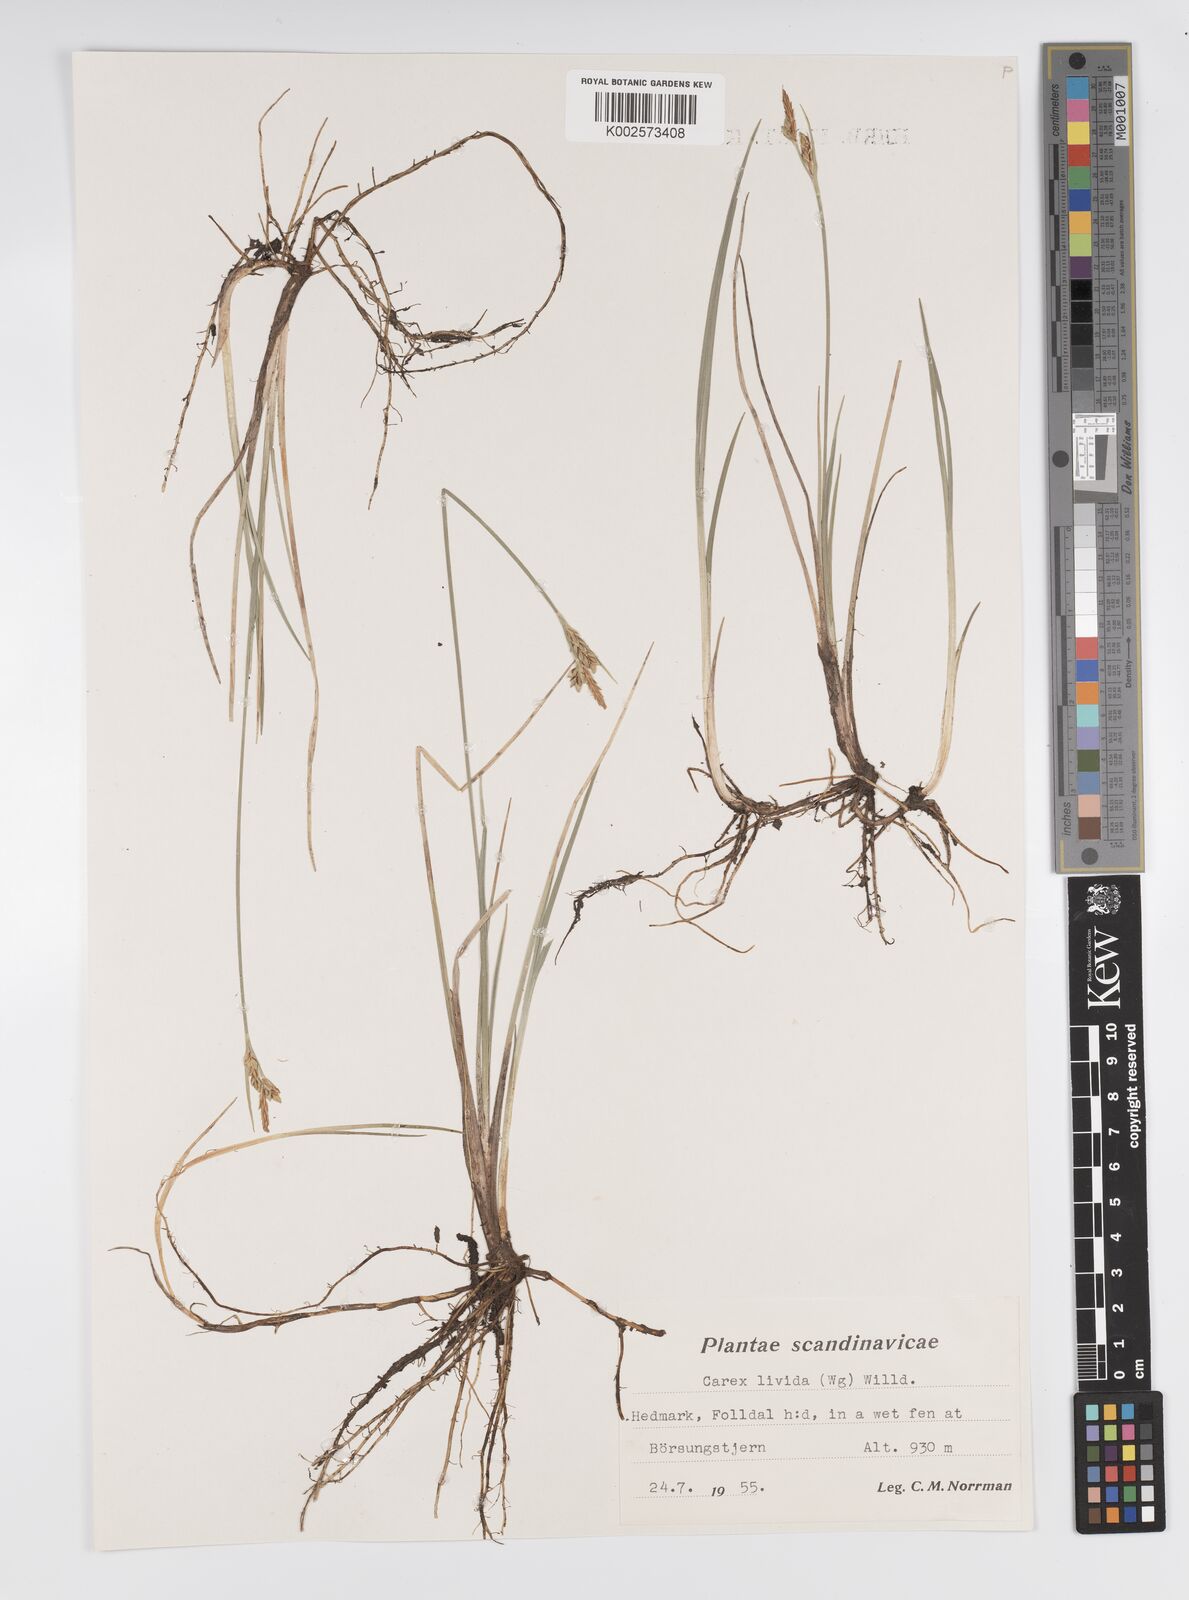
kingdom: Plantae
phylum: Tracheophyta
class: Liliopsida
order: Poales
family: Cyperaceae
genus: Carex
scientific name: Carex livida
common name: Livid sedge
